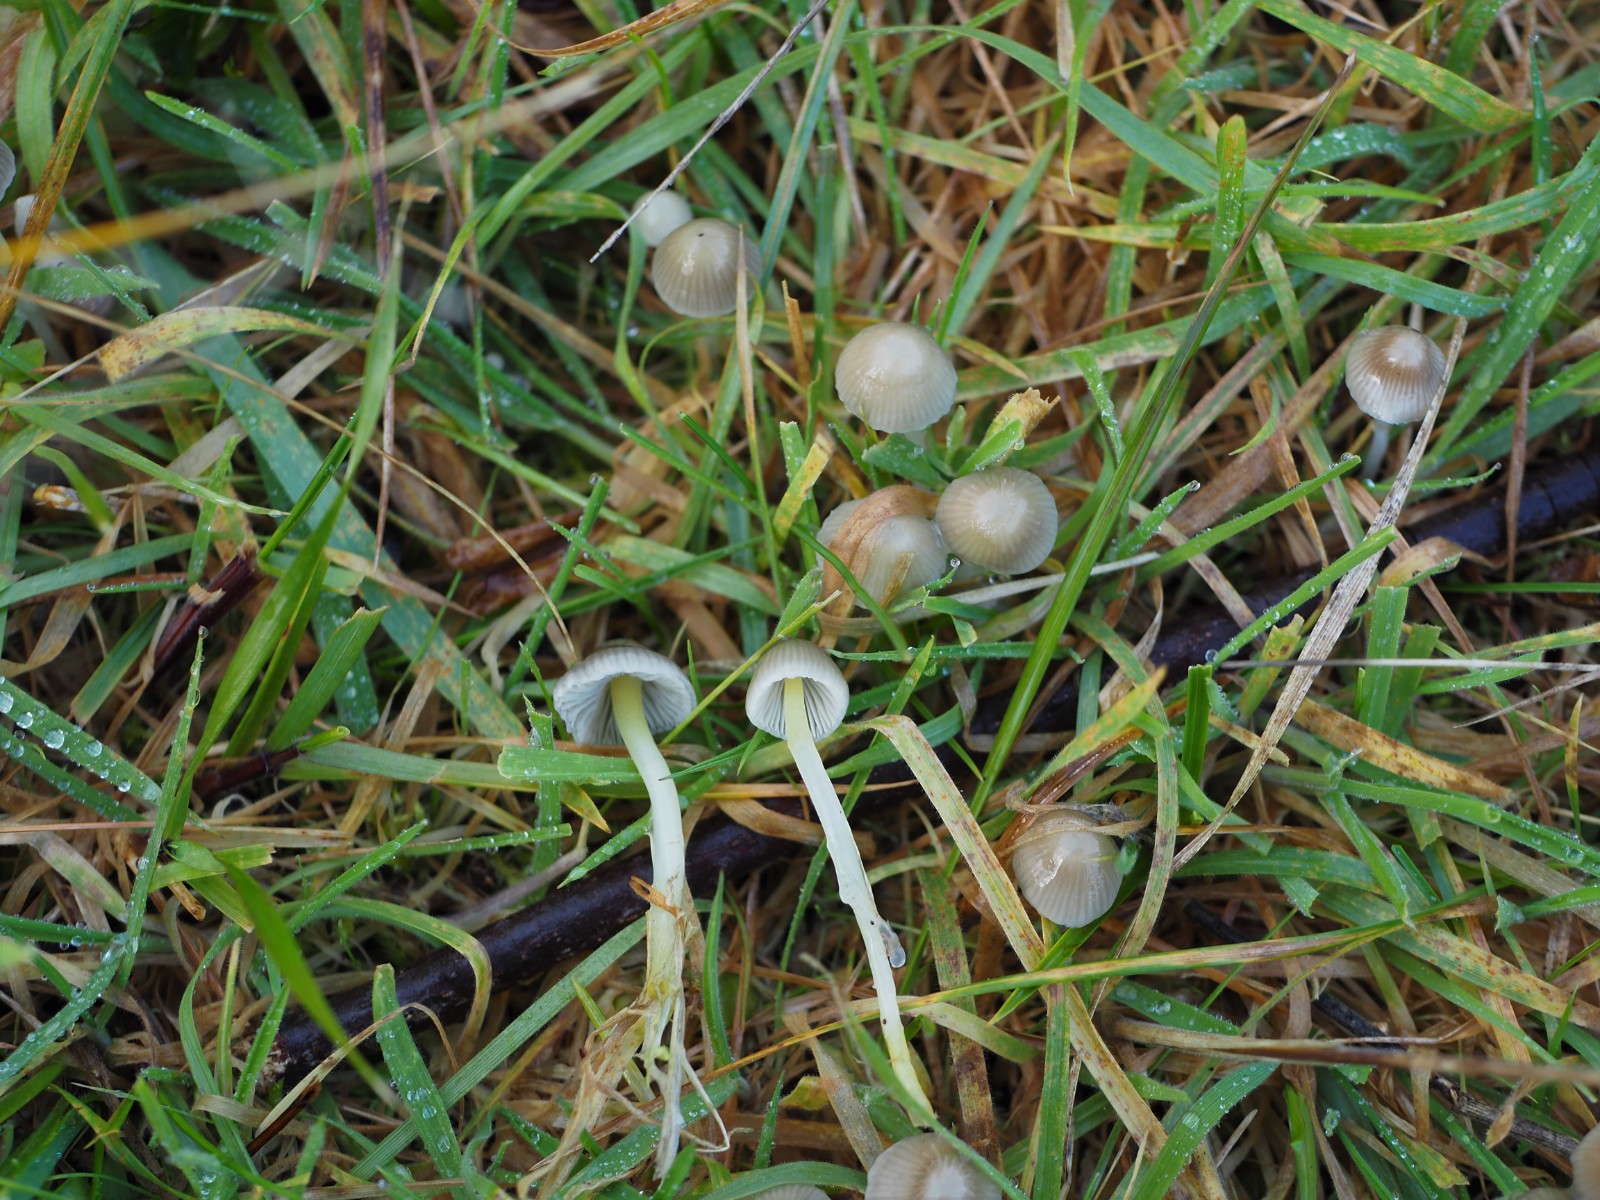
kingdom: Fungi
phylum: Basidiomycota
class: Agaricomycetes
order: Agaricales
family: Mycenaceae
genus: Mycena
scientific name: Mycena epipterygia
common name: gulstokket huesvamp
